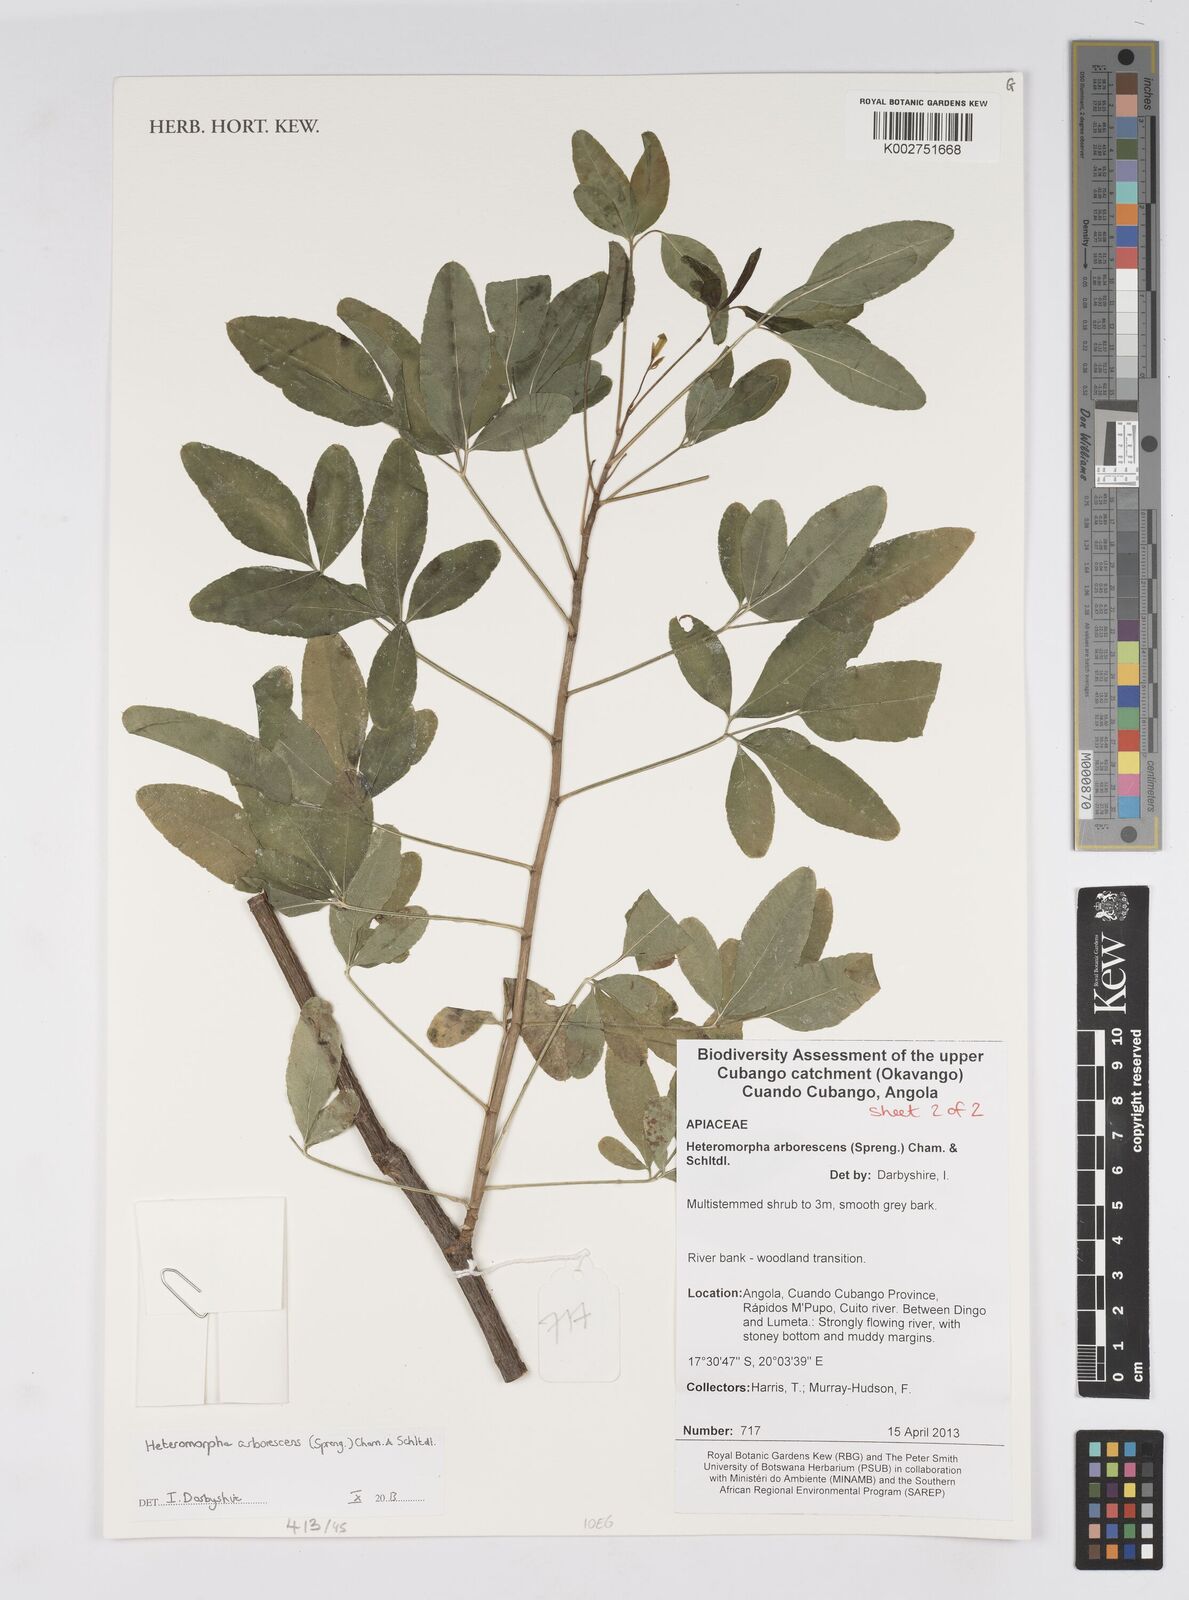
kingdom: Plantae
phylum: Tracheophyta
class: Magnoliopsida
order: Apiales
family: Apiaceae
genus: Heteromorpha
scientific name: Heteromorpha arborescens
